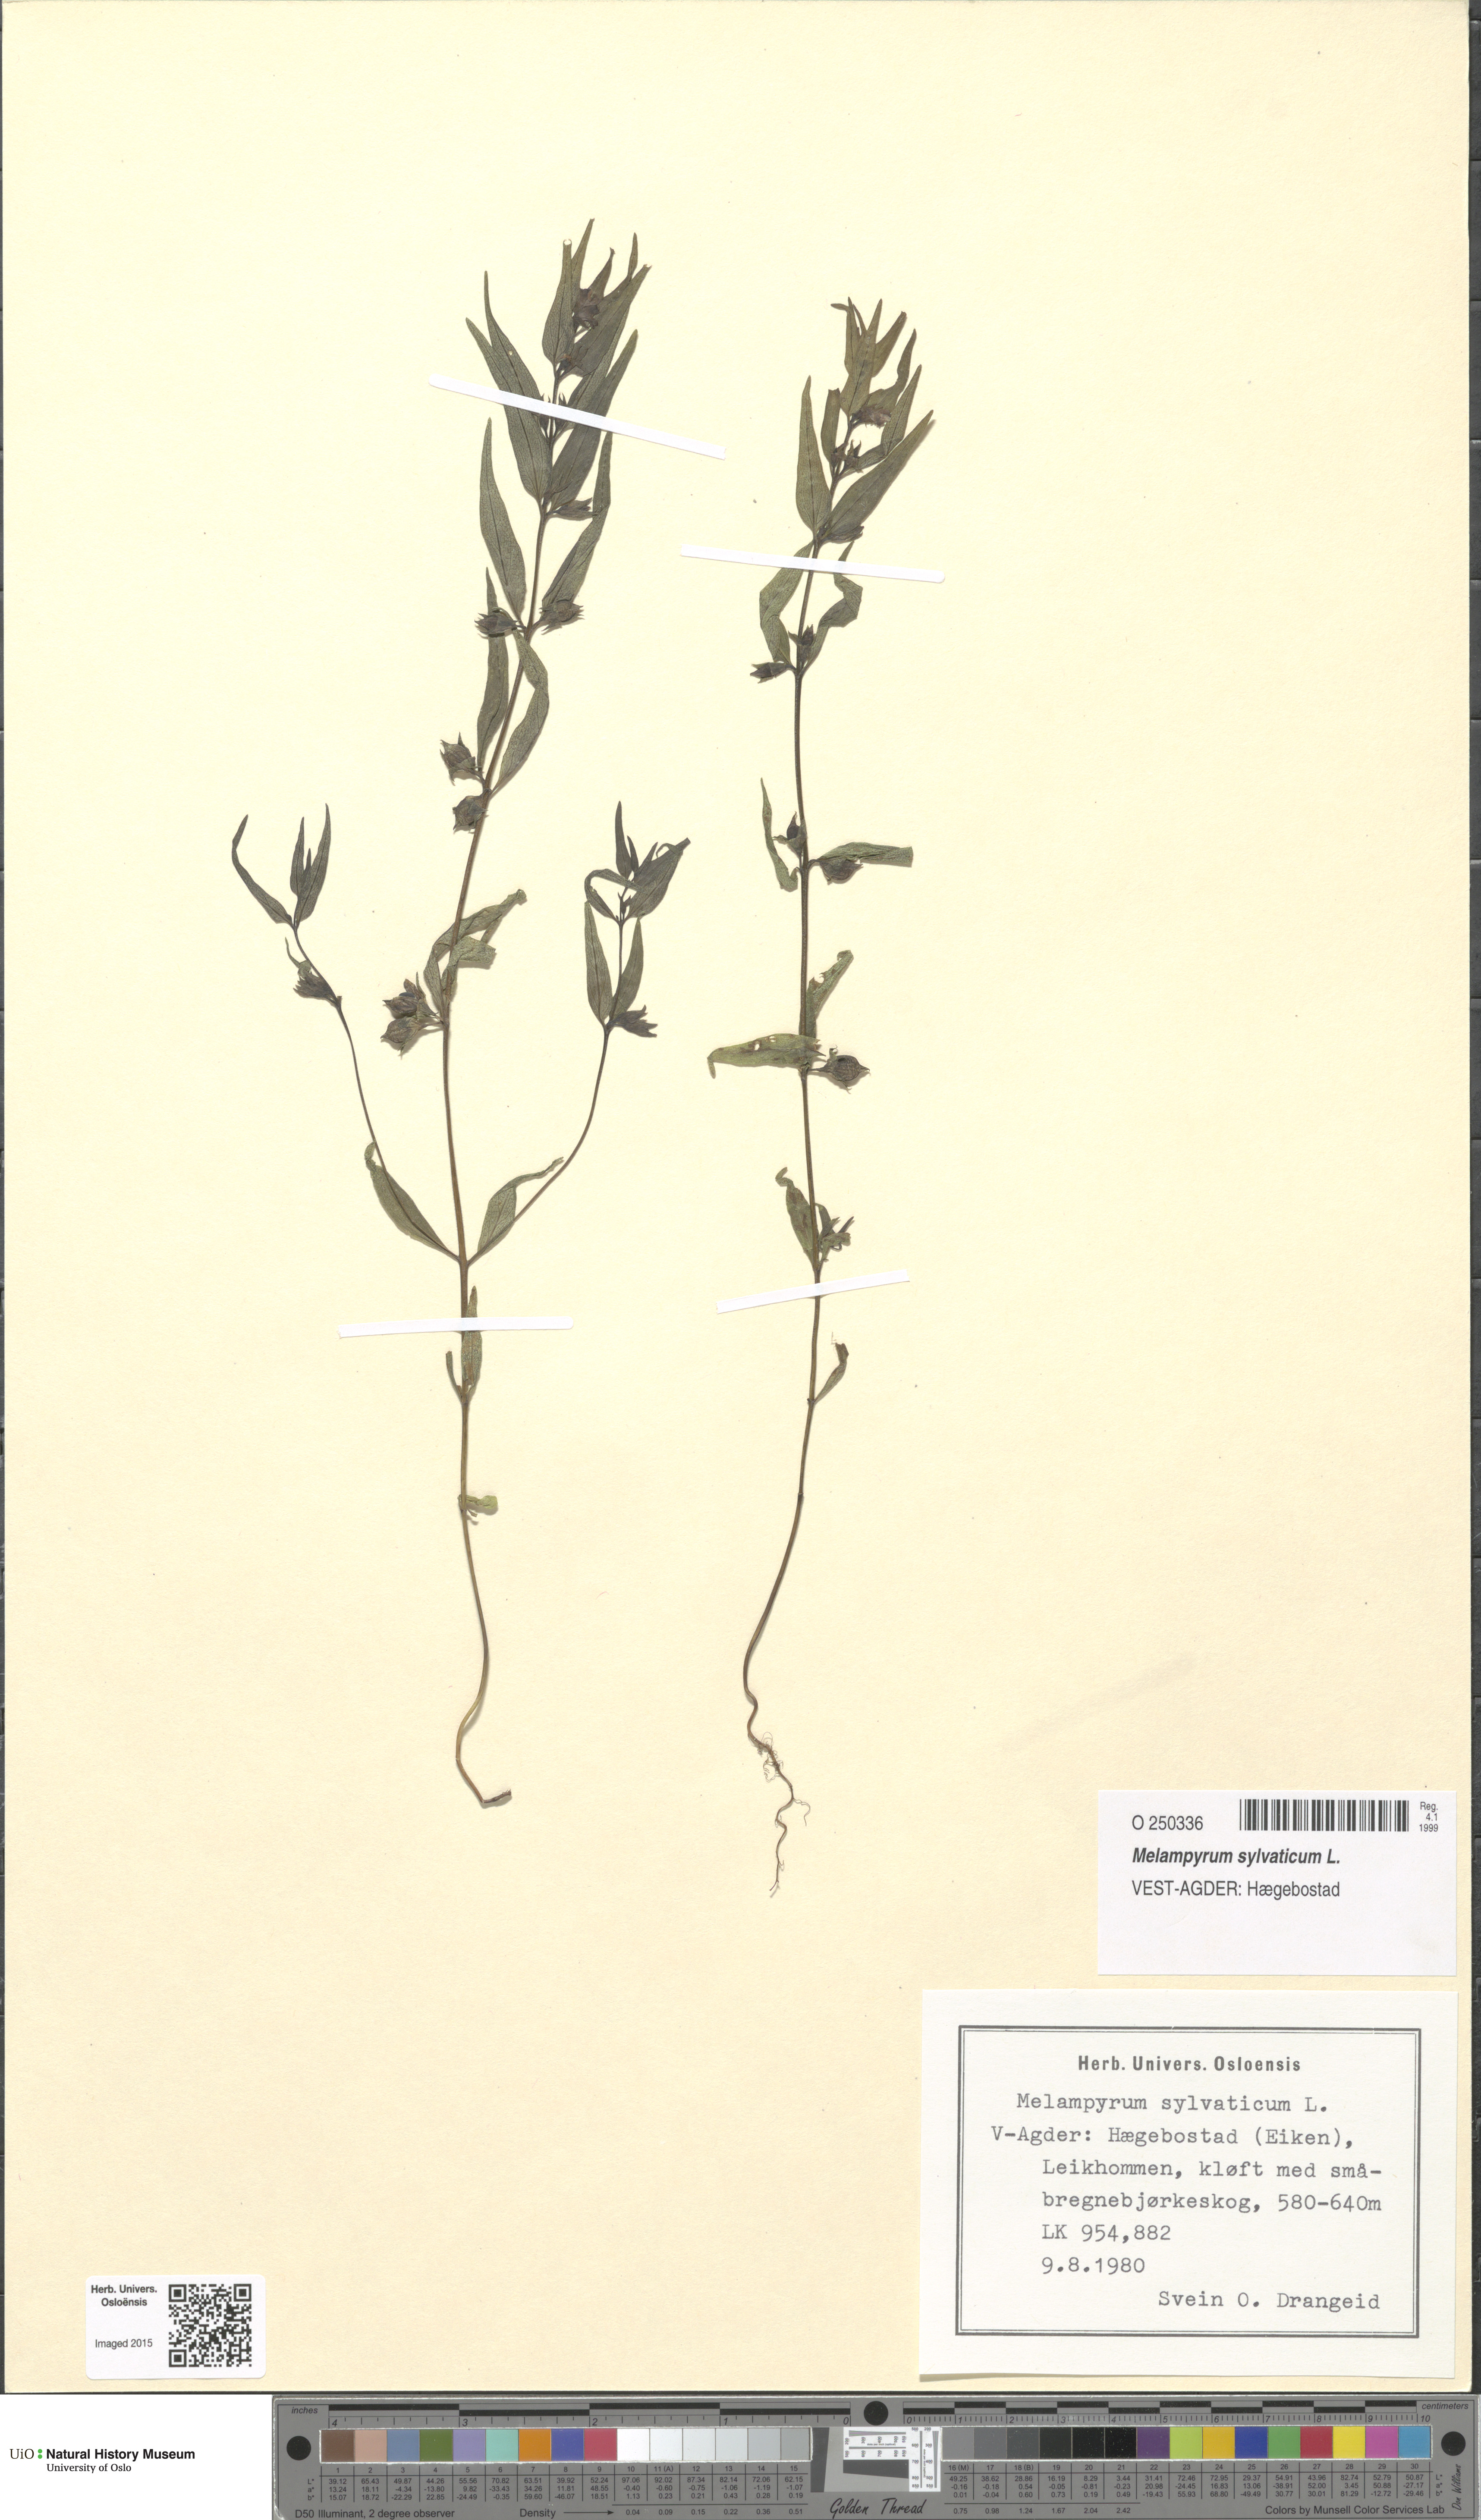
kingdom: Plantae
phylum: Tracheophyta
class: Magnoliopsida
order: Lamiales
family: Orobanchaceae
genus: Melampyrum
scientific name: Melampyrum sylvaticum
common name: Small cow-wheat
